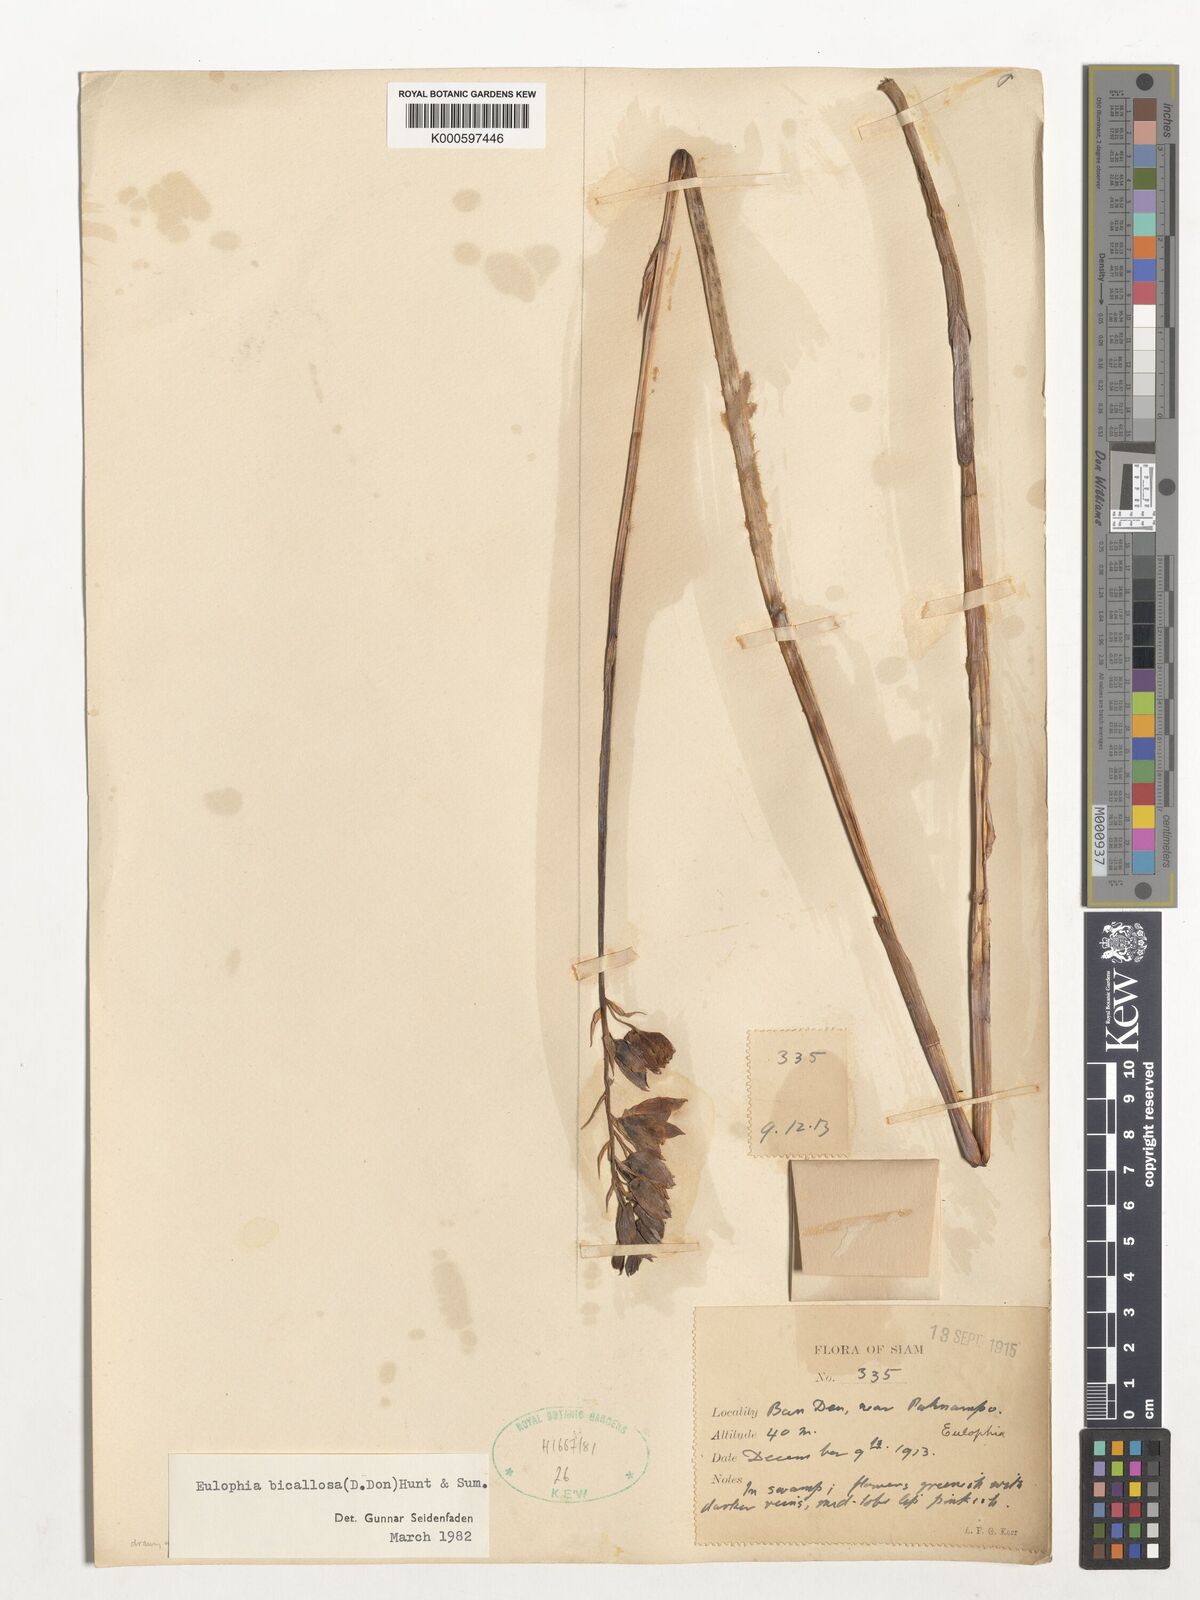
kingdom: Plantae
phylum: Tracheophyta
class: Liliopsida
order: Asparagales
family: Orchidaceae
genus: Eulophia
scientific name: Eulophia bicallosa
